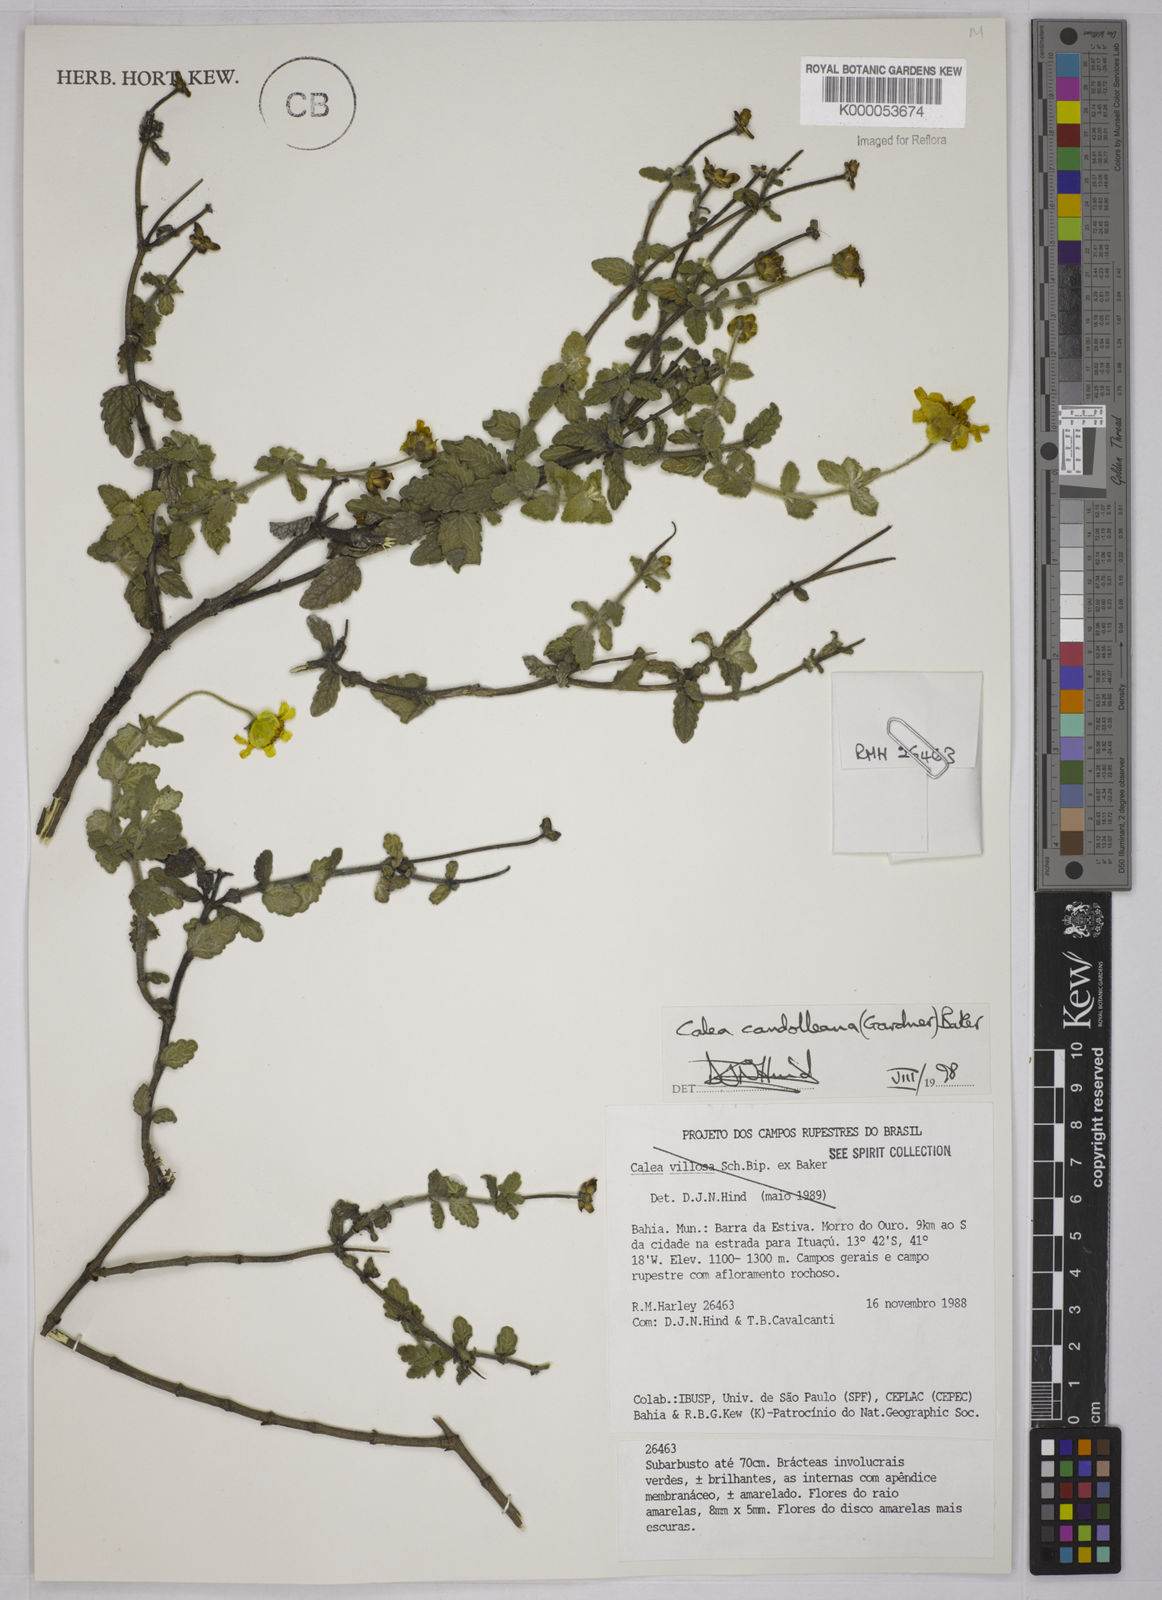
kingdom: Plantae
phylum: Tracheophyta
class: Magnoliopsida
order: Asterales
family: Asteraceae
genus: Calea
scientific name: Calea candolleana
